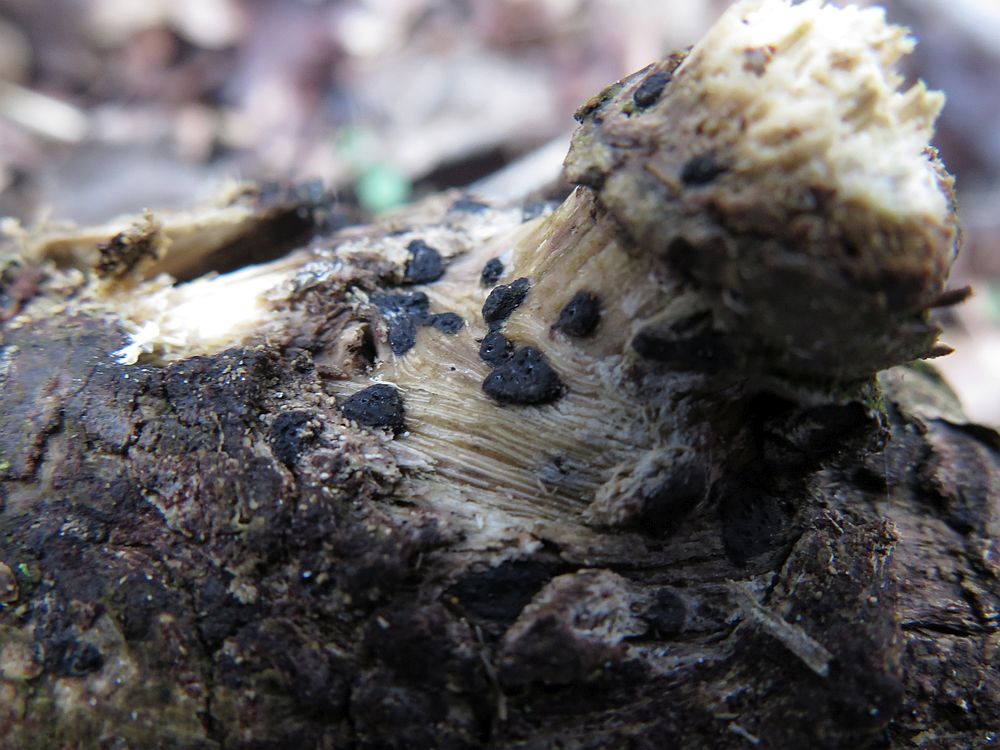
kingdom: Fungi
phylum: Ascomycota
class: Sordariomycetes
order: Xylariales
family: Xylariaceae
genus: Nemania
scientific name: Nemania serpens
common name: almindelig kuldyne
